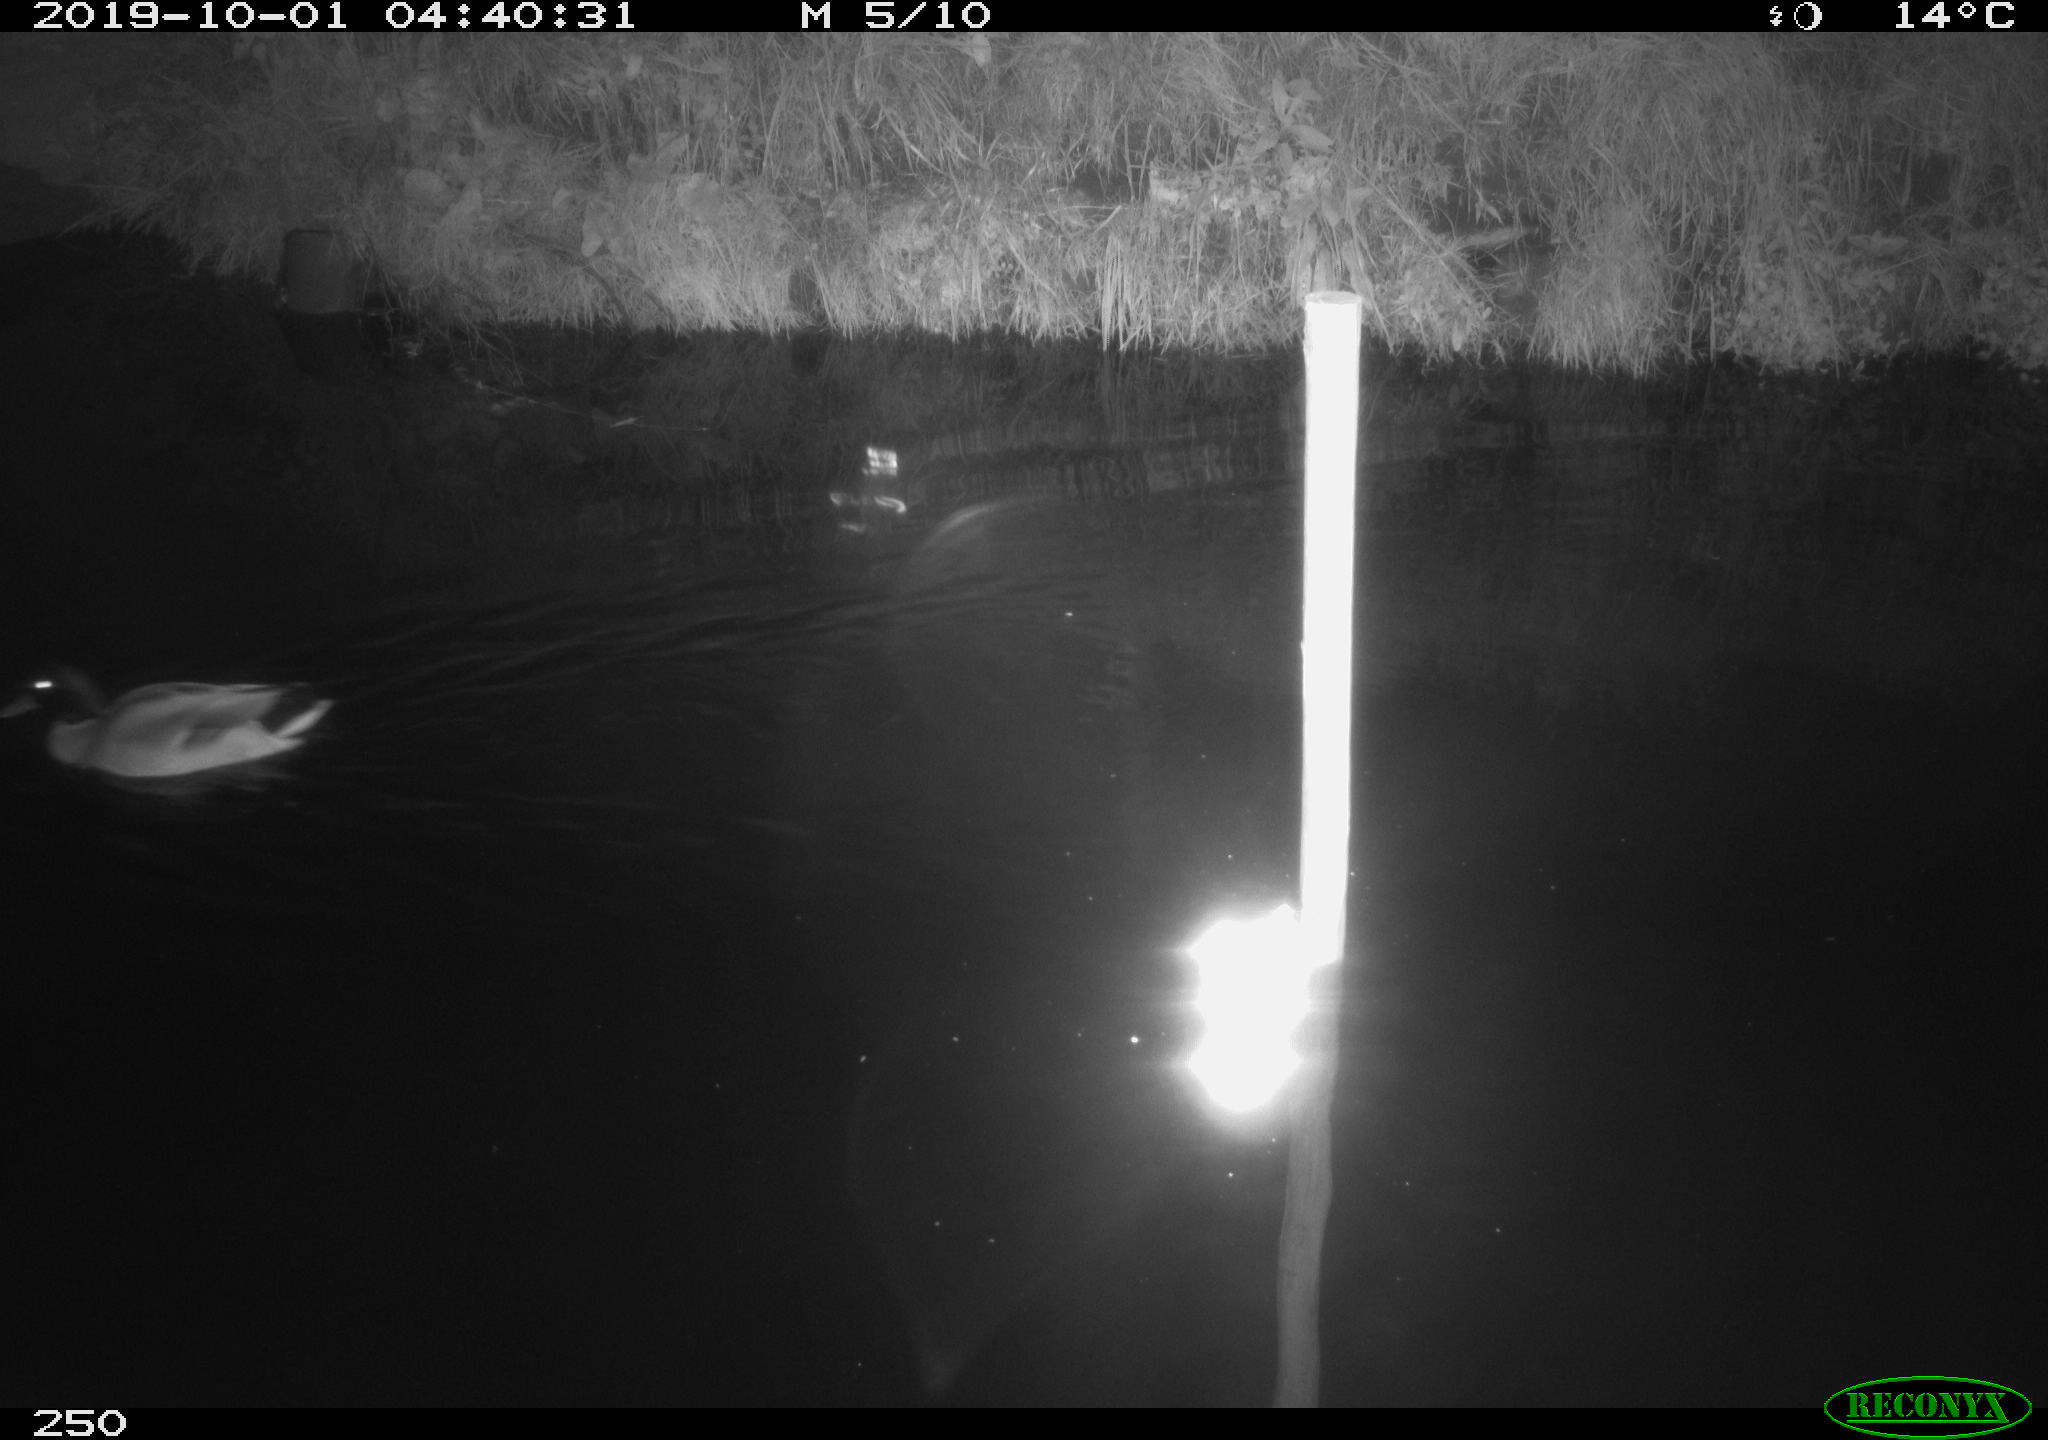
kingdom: Animalia
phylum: Chordata
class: Aves
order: Anseriformes
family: Anatidae
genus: Anas
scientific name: Anas platyrhynchos
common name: Mallard
